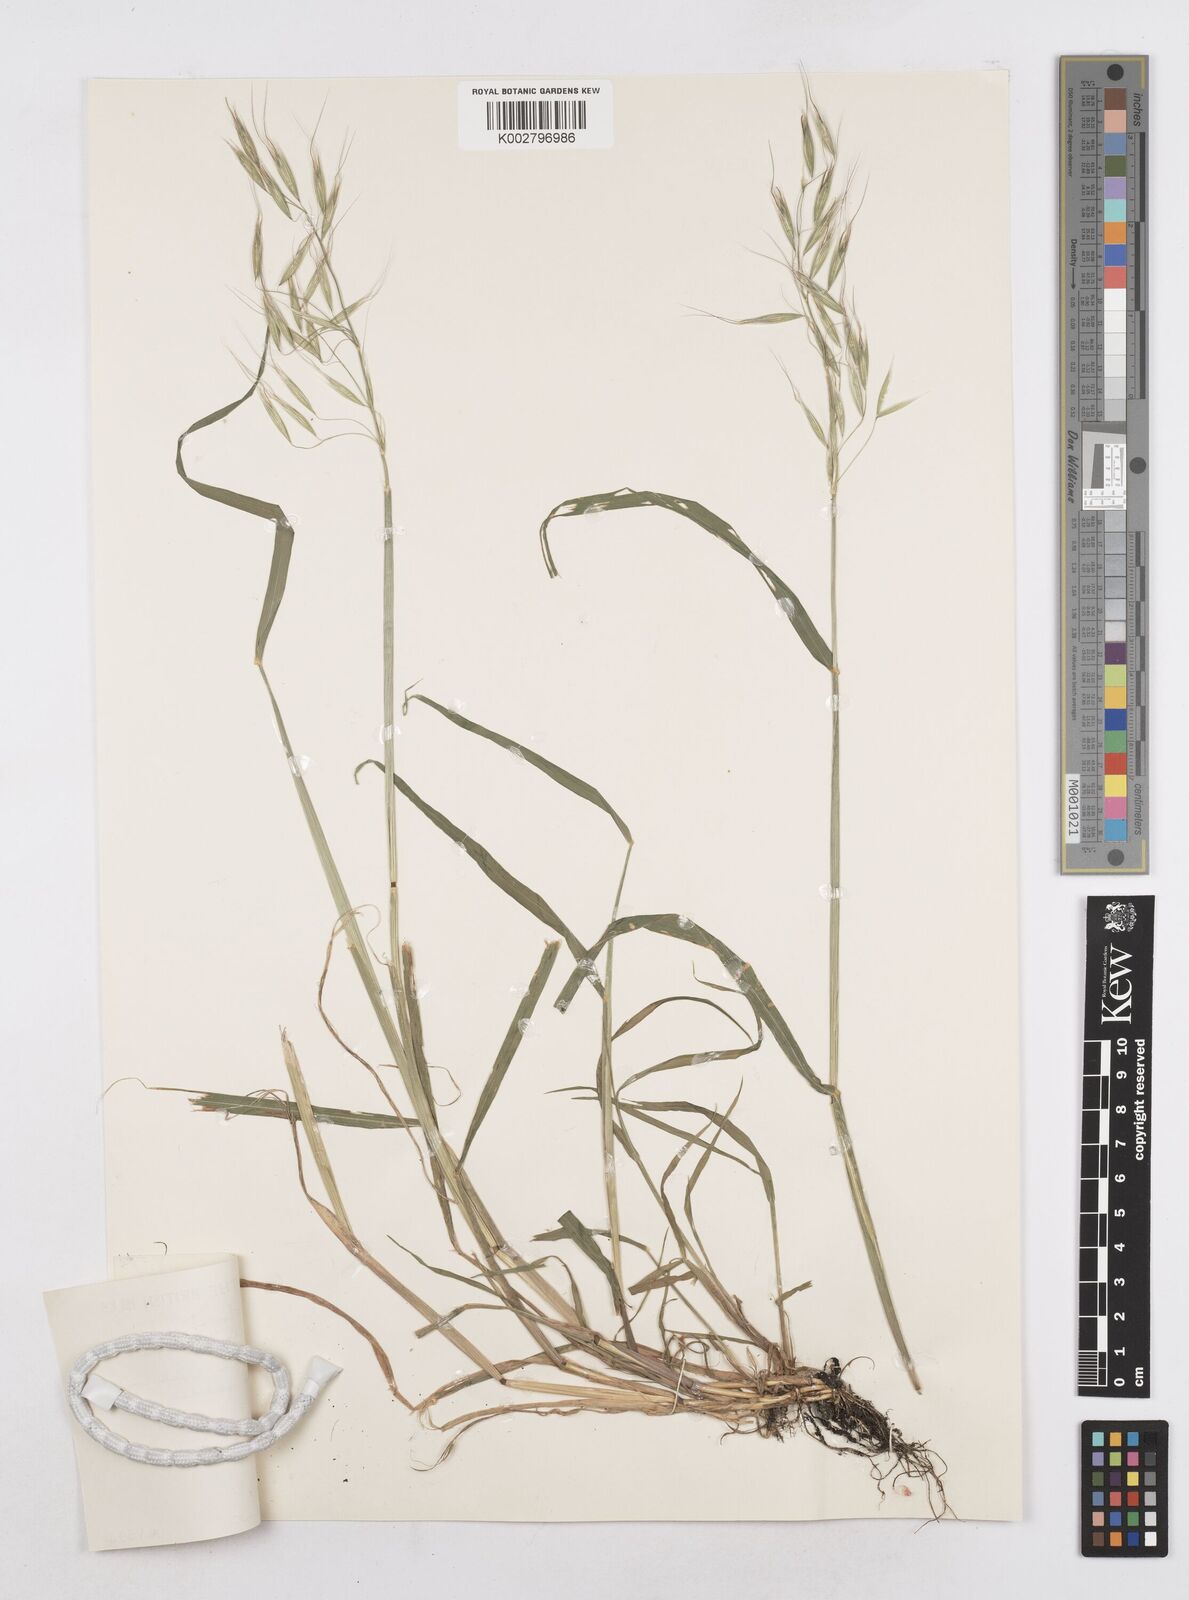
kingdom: Plantae
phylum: Tracheophyta
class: Liliopsida
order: Poales
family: Poaceae
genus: Avena
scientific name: Avena strigosa
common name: Bristle oat
